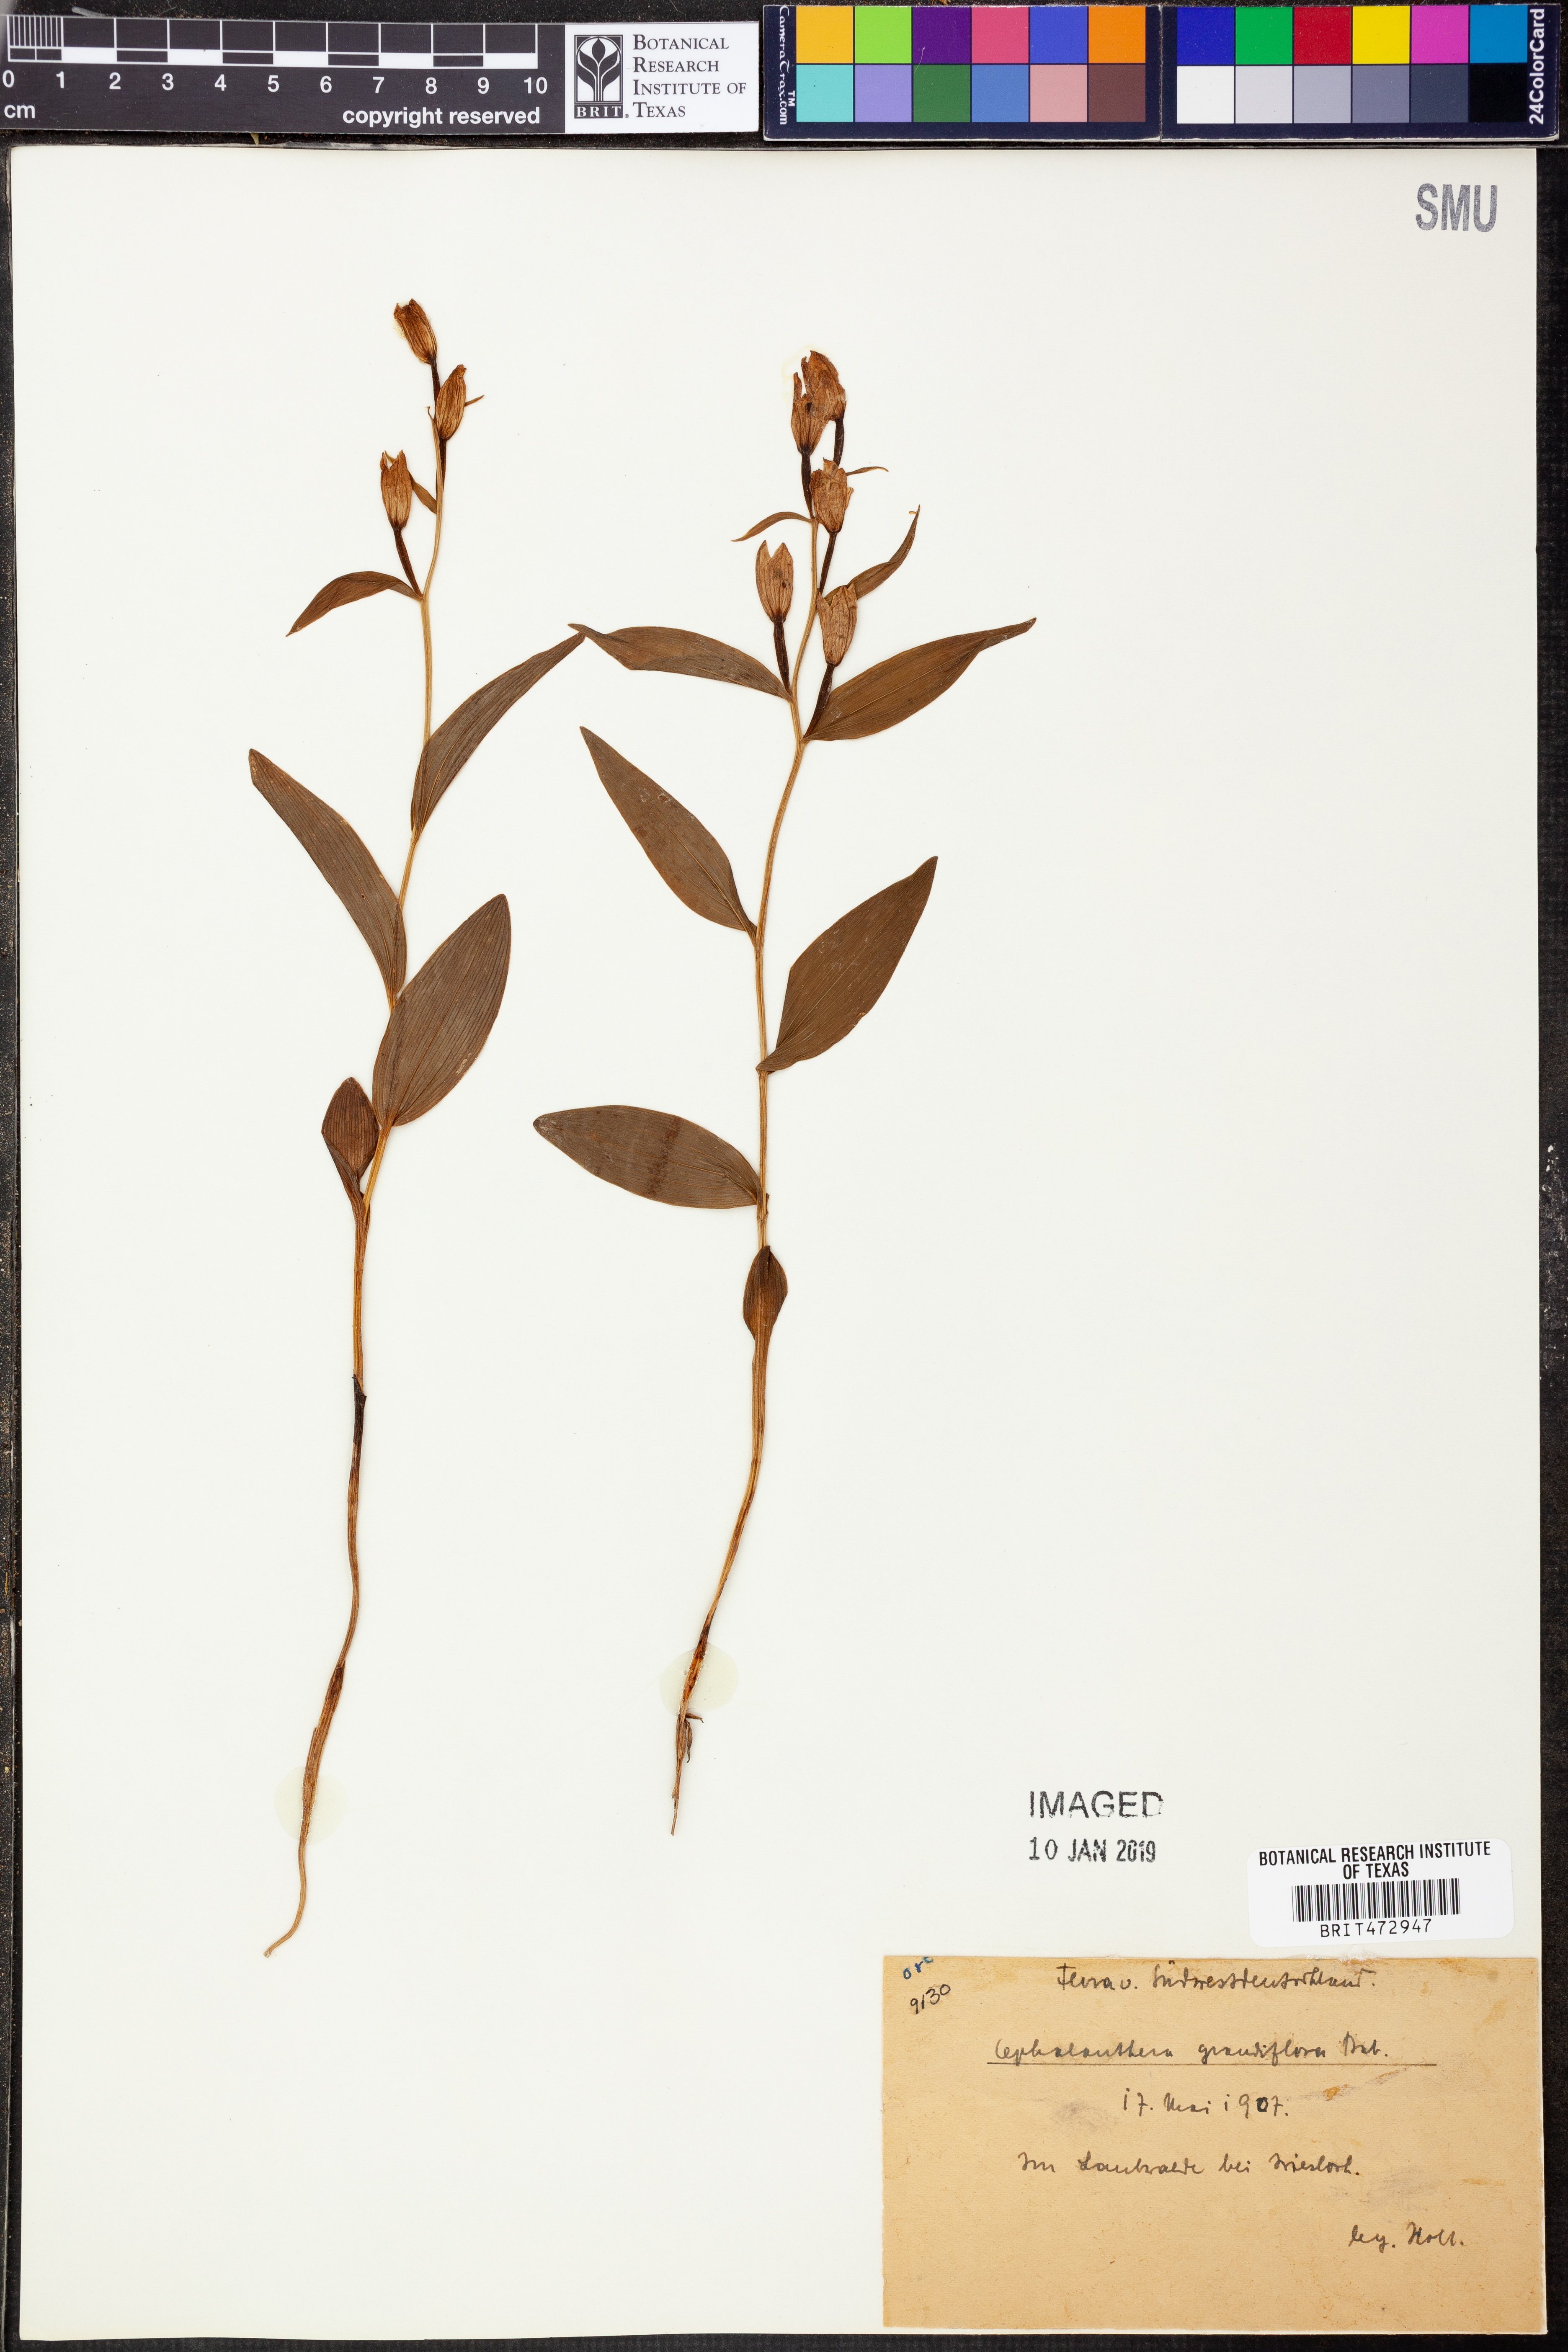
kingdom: Plantae
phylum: Tracheophyta
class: Liliopsida
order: Asparagales
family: Orchidaceae
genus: Cephalanthera
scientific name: Cephalanthera longifolia
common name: Narrow-leaved helleborine
